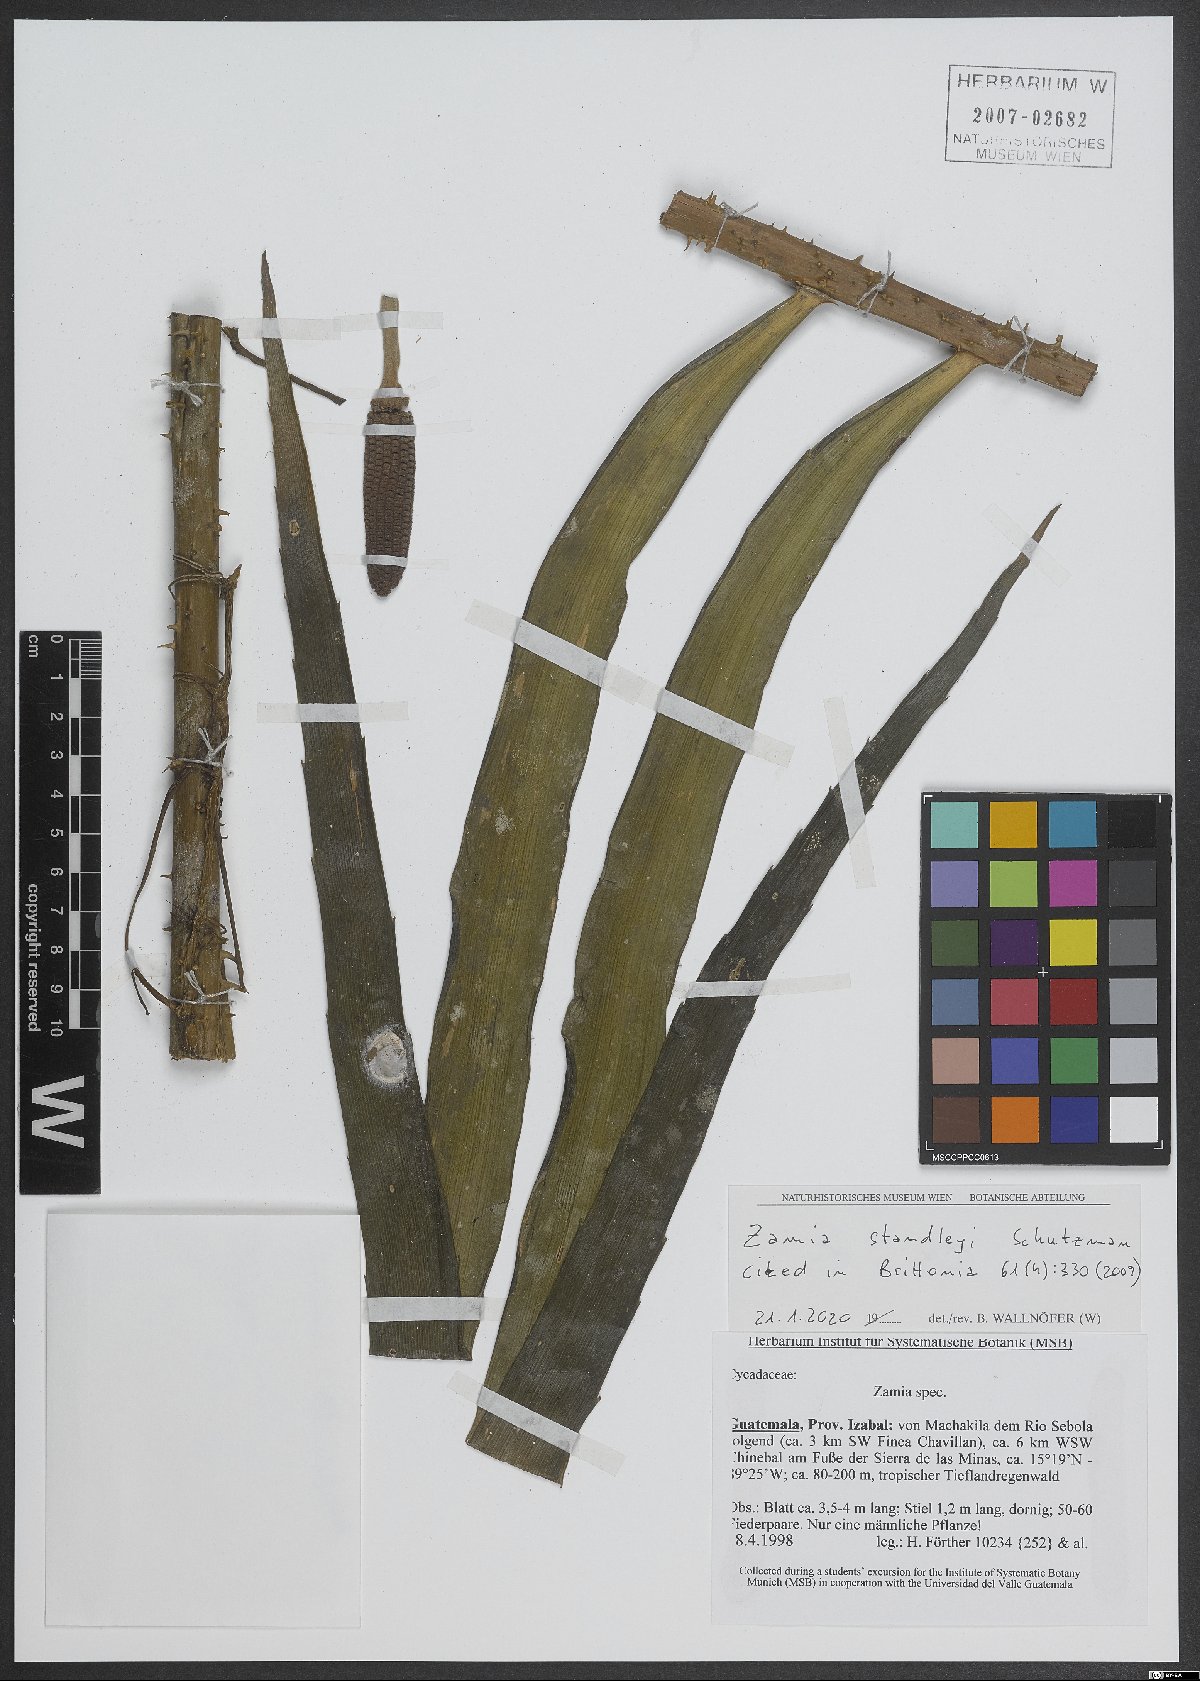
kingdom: Plantae
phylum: Tracheophyta
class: Cycadopsida
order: Cycadales
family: Zamiaceae
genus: Zamia
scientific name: Zamia standleyi
